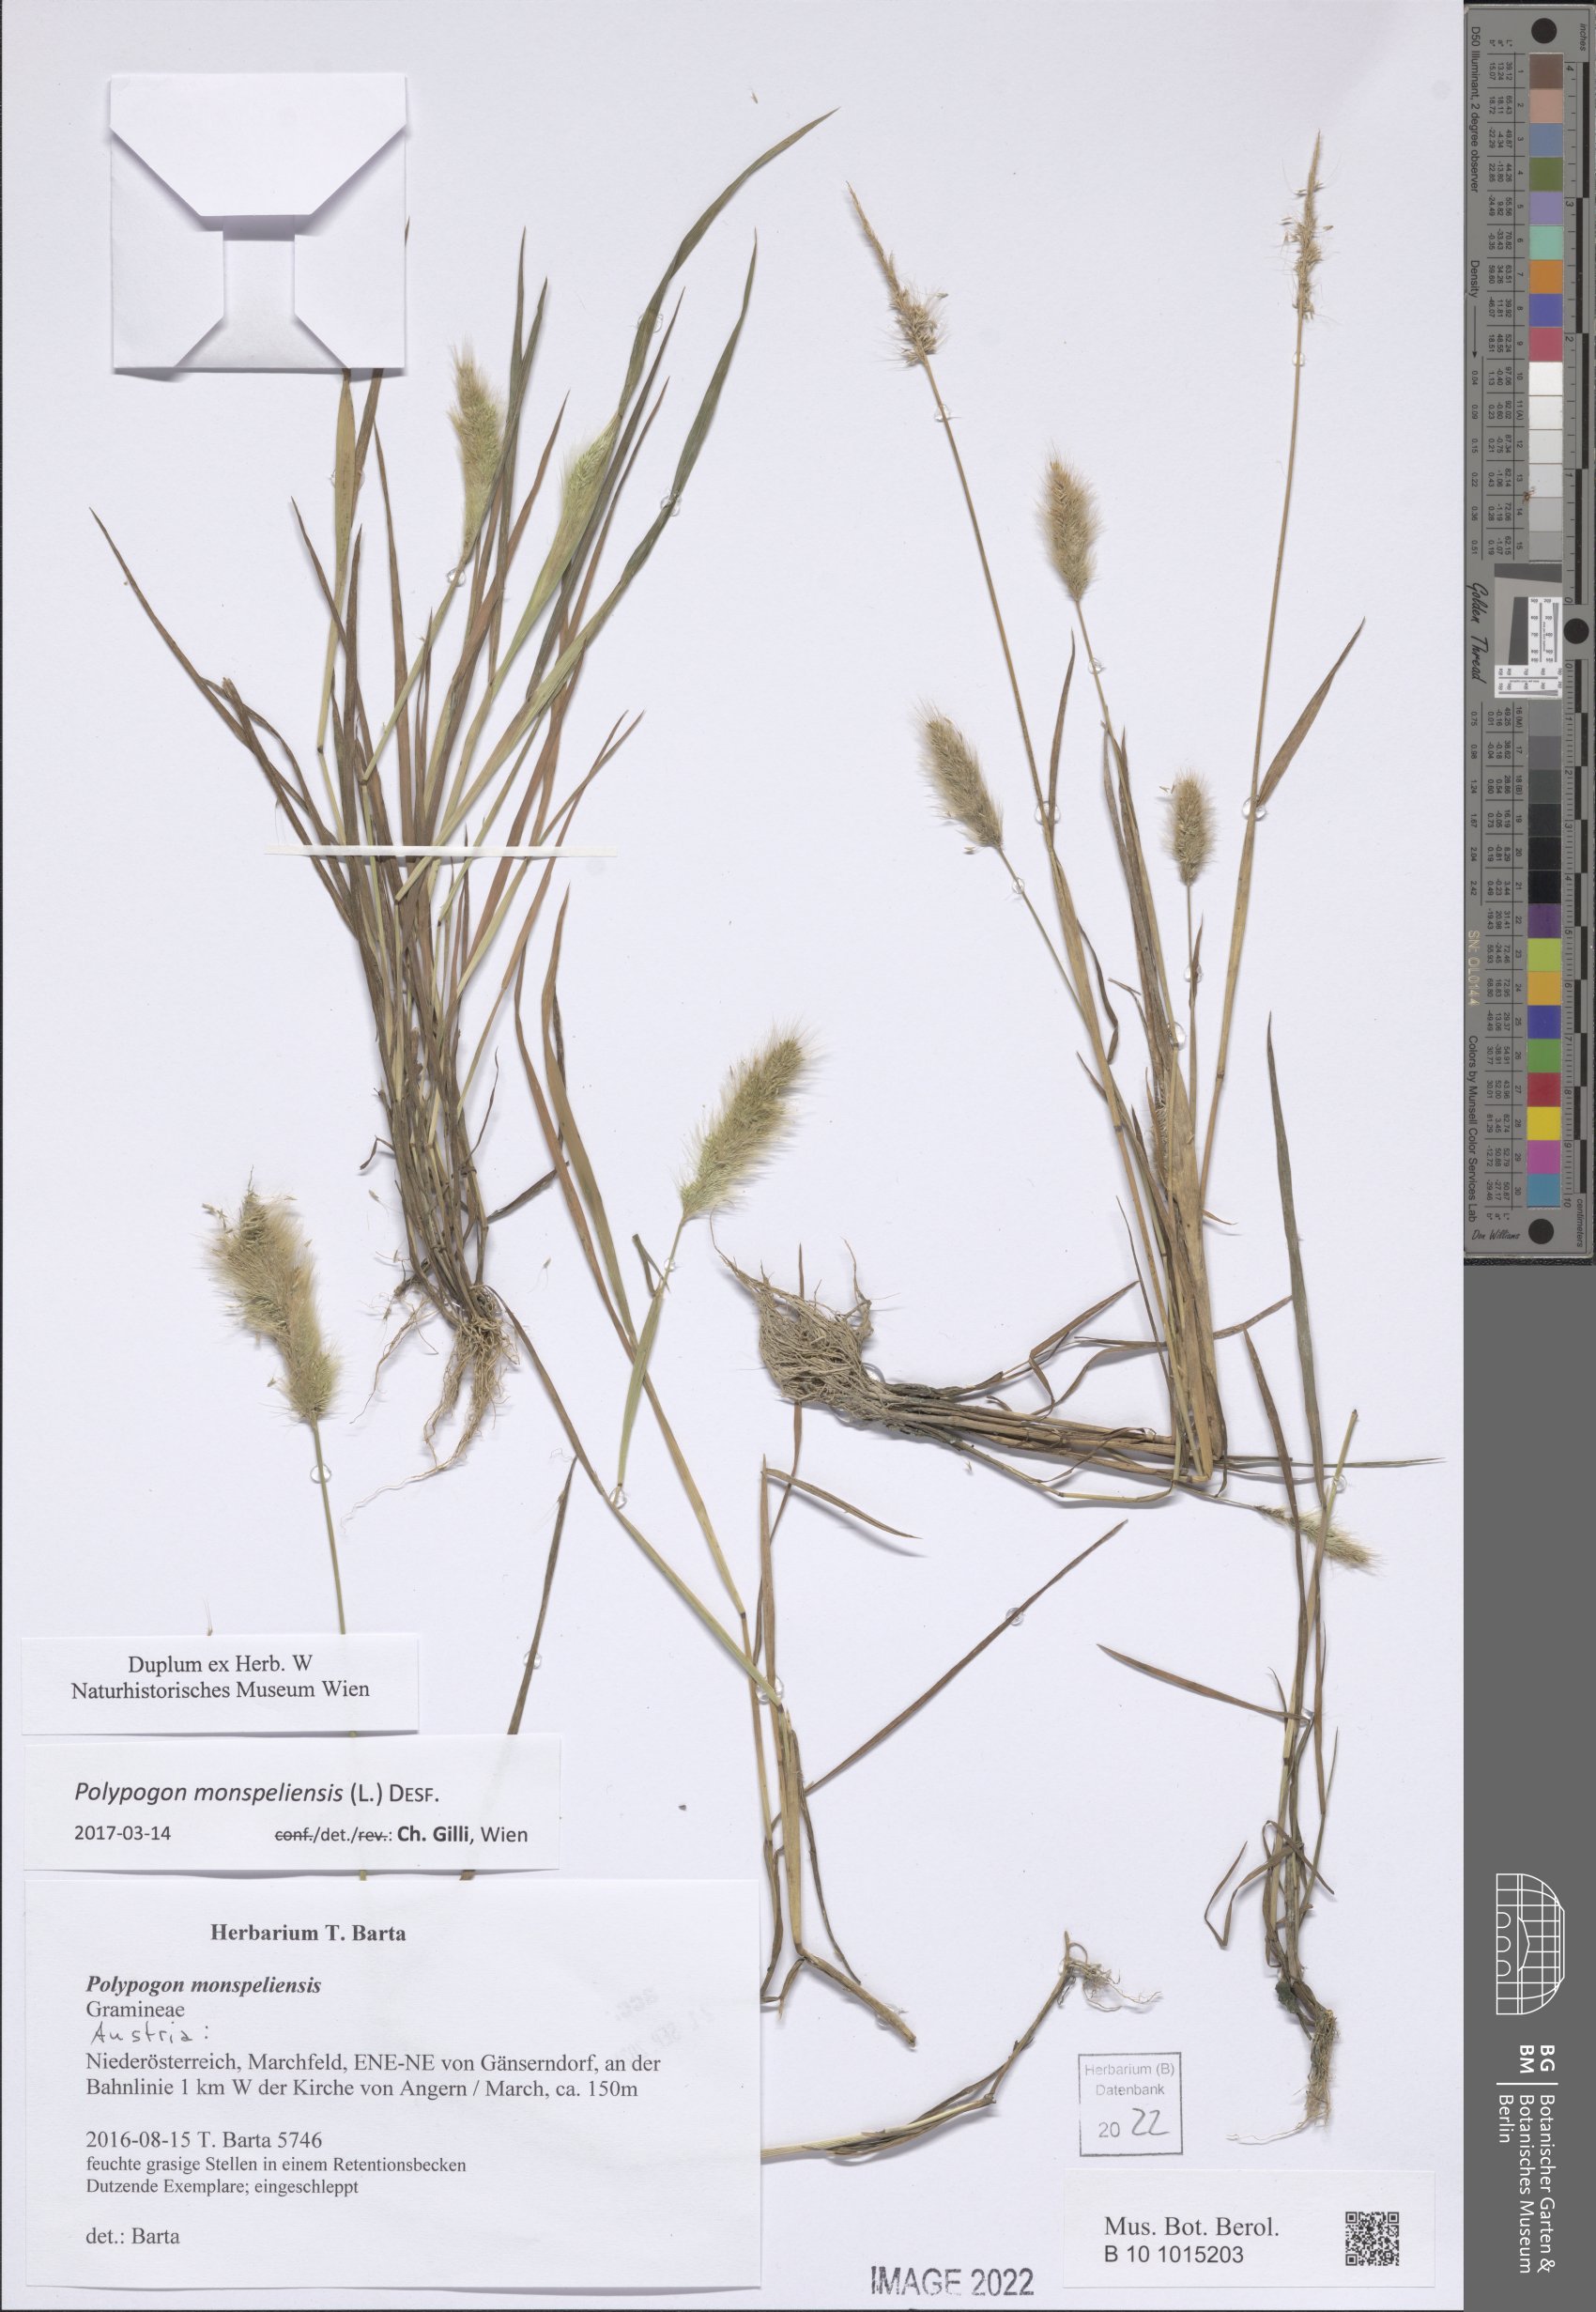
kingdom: Plantae
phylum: Tracheophyta
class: Liliopsida
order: Poales
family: Poaceae
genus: Polypogon
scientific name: Polypogon monspeliensis
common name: Annual rabbitsfoot grass
